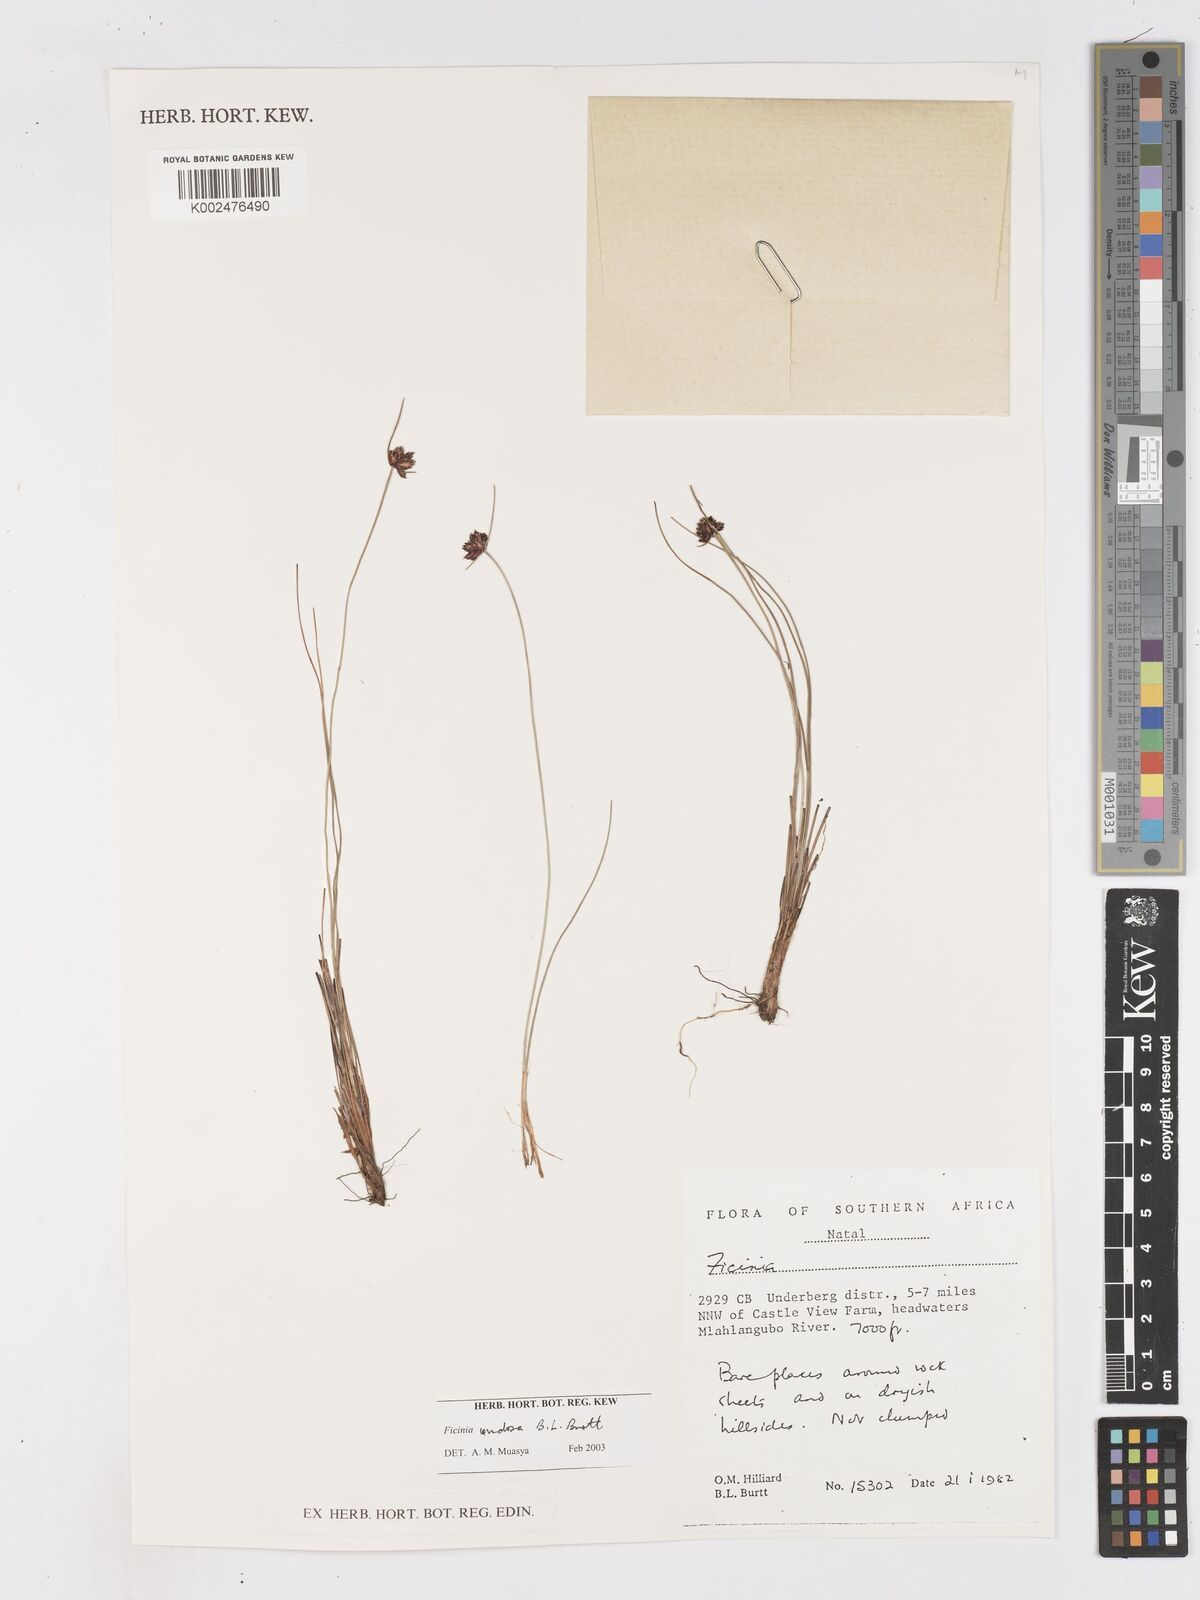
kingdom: Plantae
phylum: Tracheophyta
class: Liliopsida
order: Poales
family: Cyperaceae
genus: Ficinia
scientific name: Ficinia undosa
